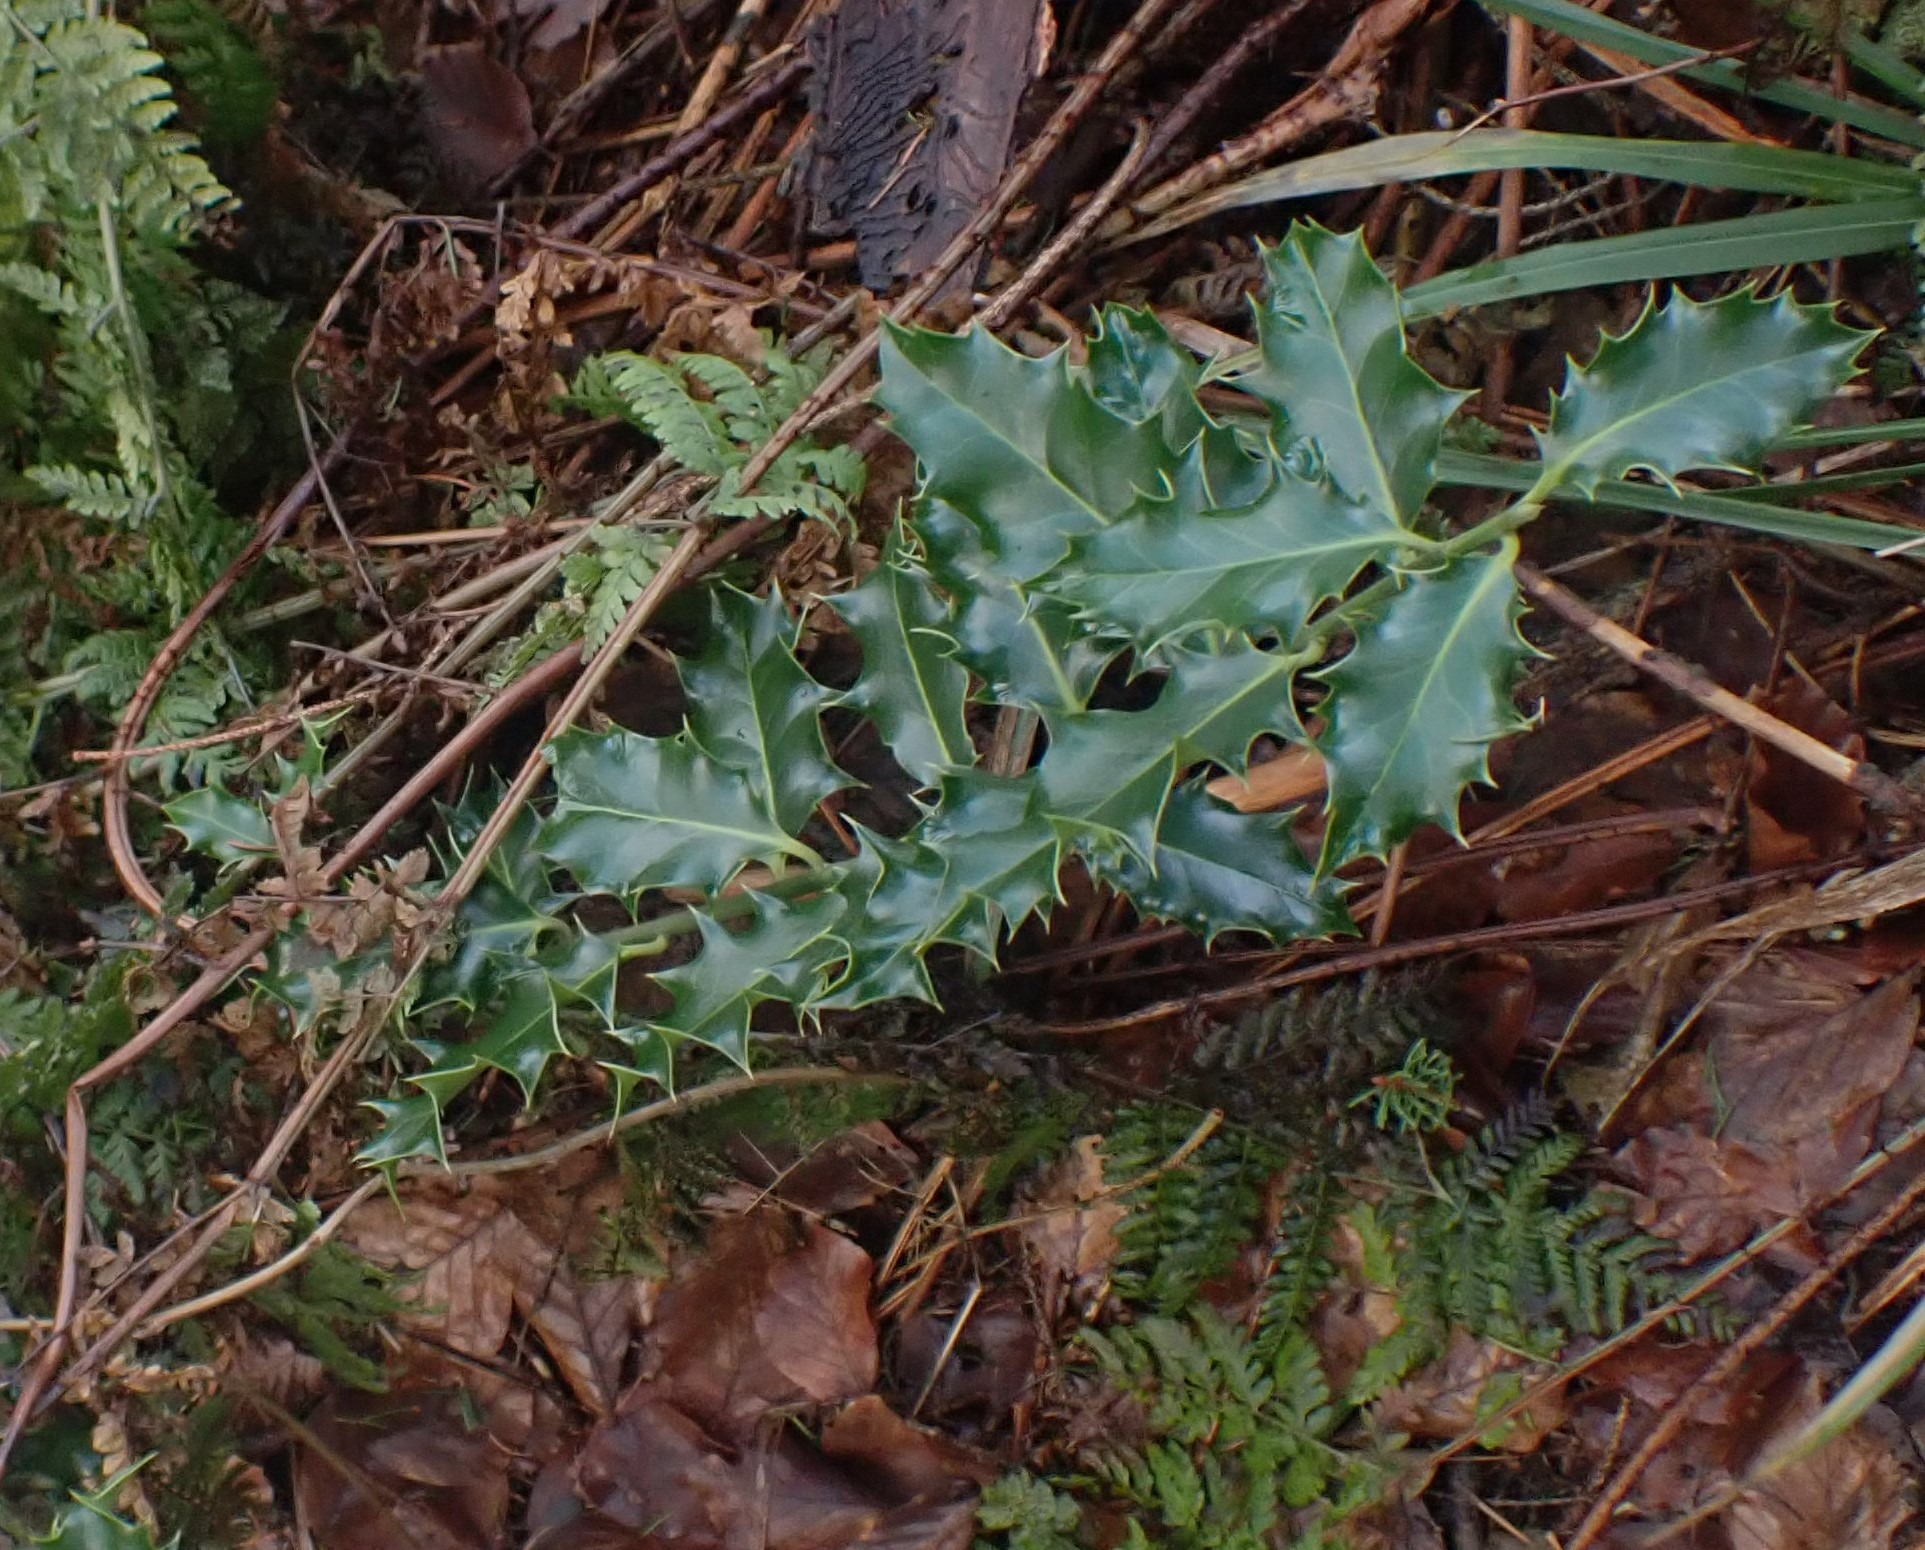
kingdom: Plantae
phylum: Tracheophyta
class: Magnoliopsida
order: Aquifoliales
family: Aquifoliaceae
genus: Ilex
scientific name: Ilex aquifolium
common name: Kristtorn
